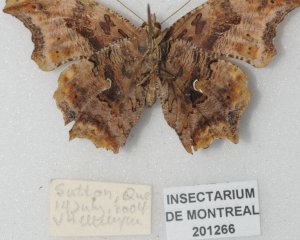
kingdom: Animalia
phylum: Arthropoda
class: Insecta
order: Lepidoptera
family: Nymphalidae
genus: Polygonia
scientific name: Polygonia satyrus
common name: Satyr Comma
